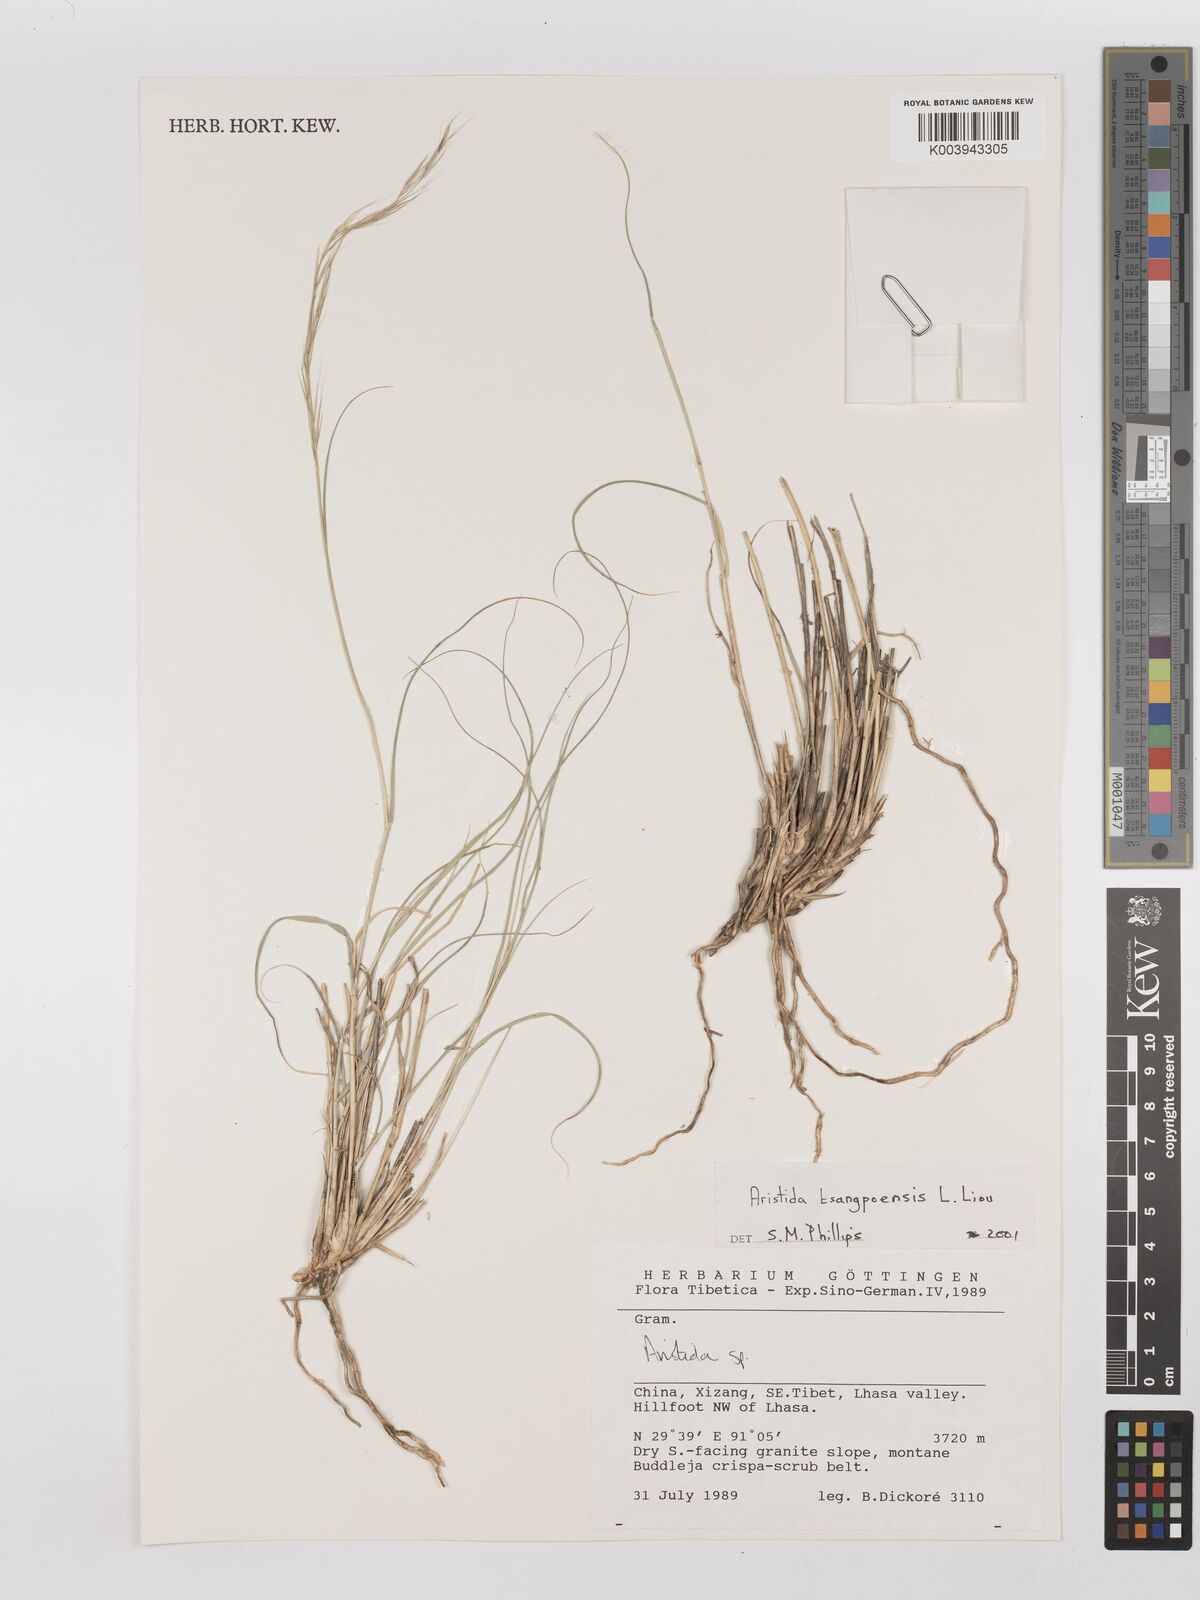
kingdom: Plantae
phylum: Tracheophyta
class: Liliopsida
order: Poales
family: Poaceae
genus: Aristida
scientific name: Aristida tsangpoensis
